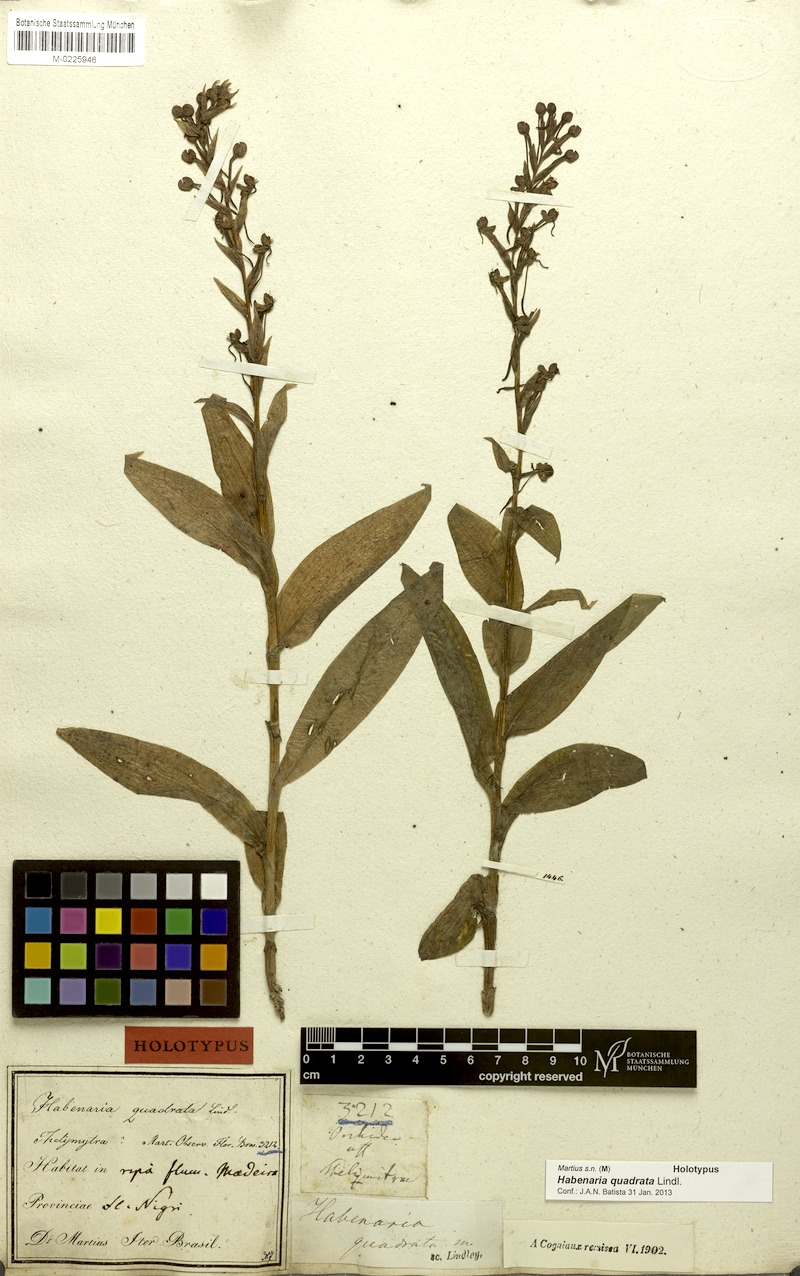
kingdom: Plantae
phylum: Tracheophyta
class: Liliopsida
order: Asparagales
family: Orchidaceae
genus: Habenaria
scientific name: Habenaria quadrata
